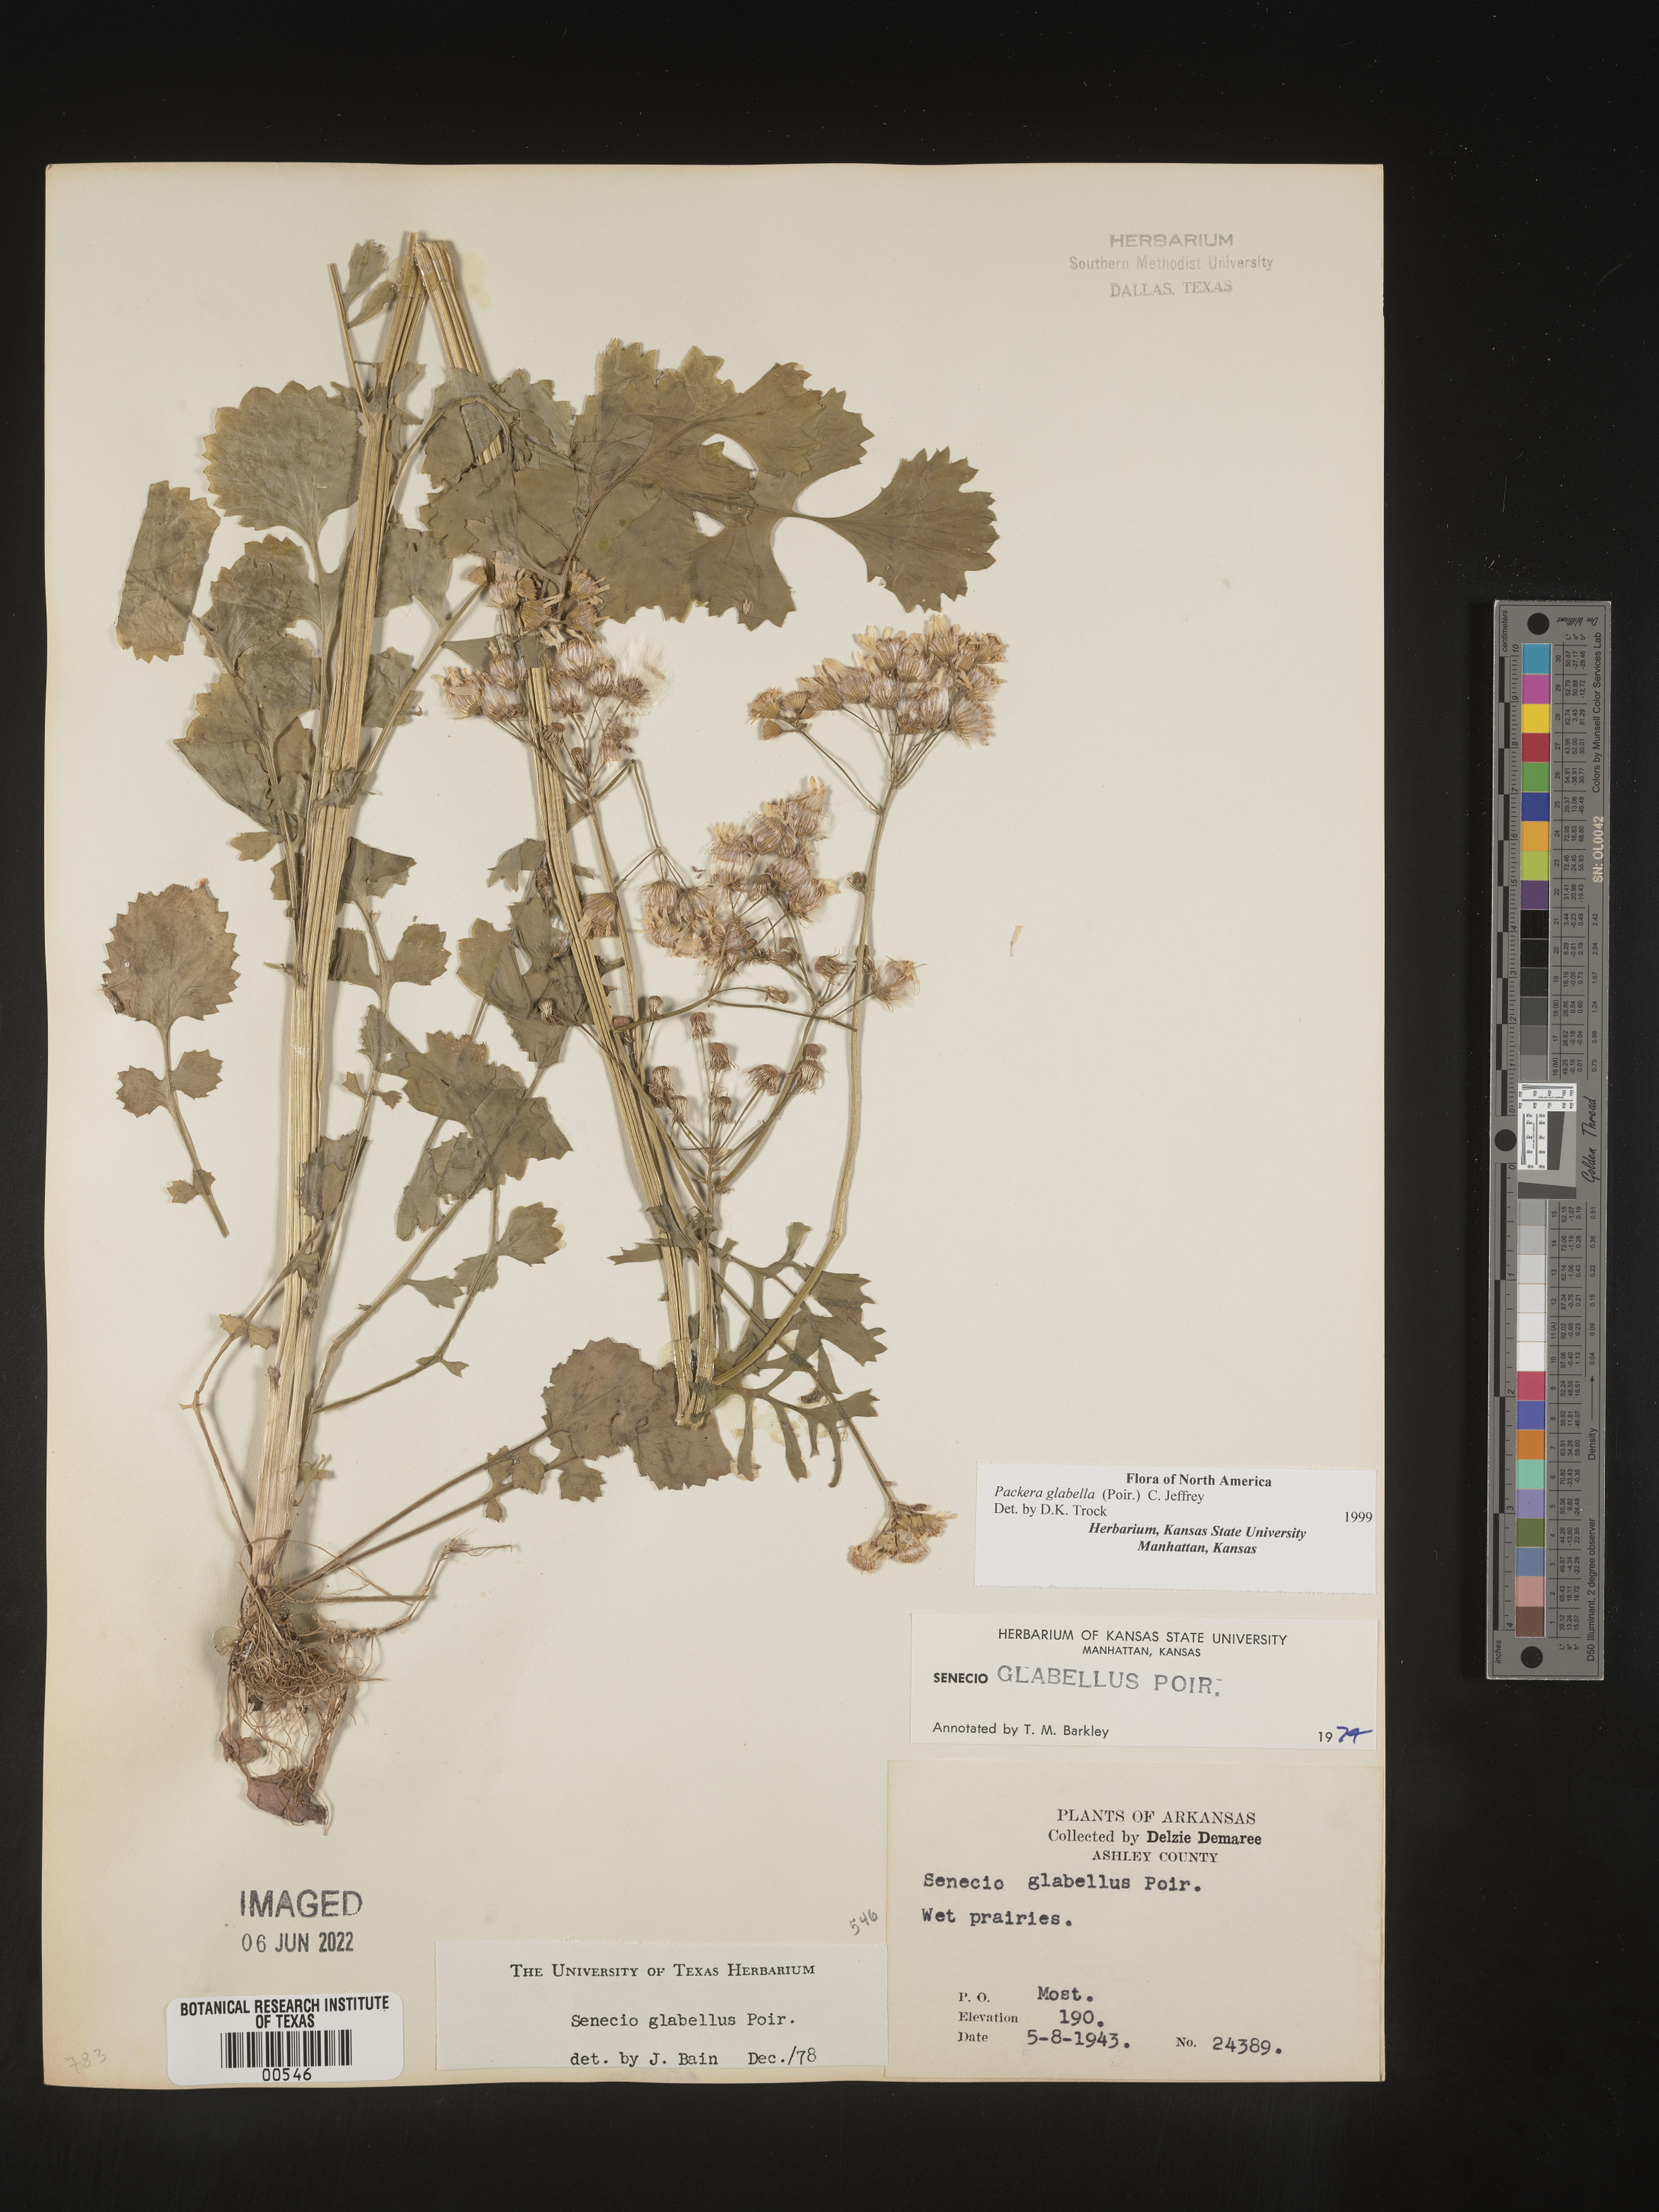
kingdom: Plantae
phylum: Tracheophyta
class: Magnoliopsida
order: Asterales
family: Asteraceae
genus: Packera
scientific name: Packera glabella
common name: Butterweed
